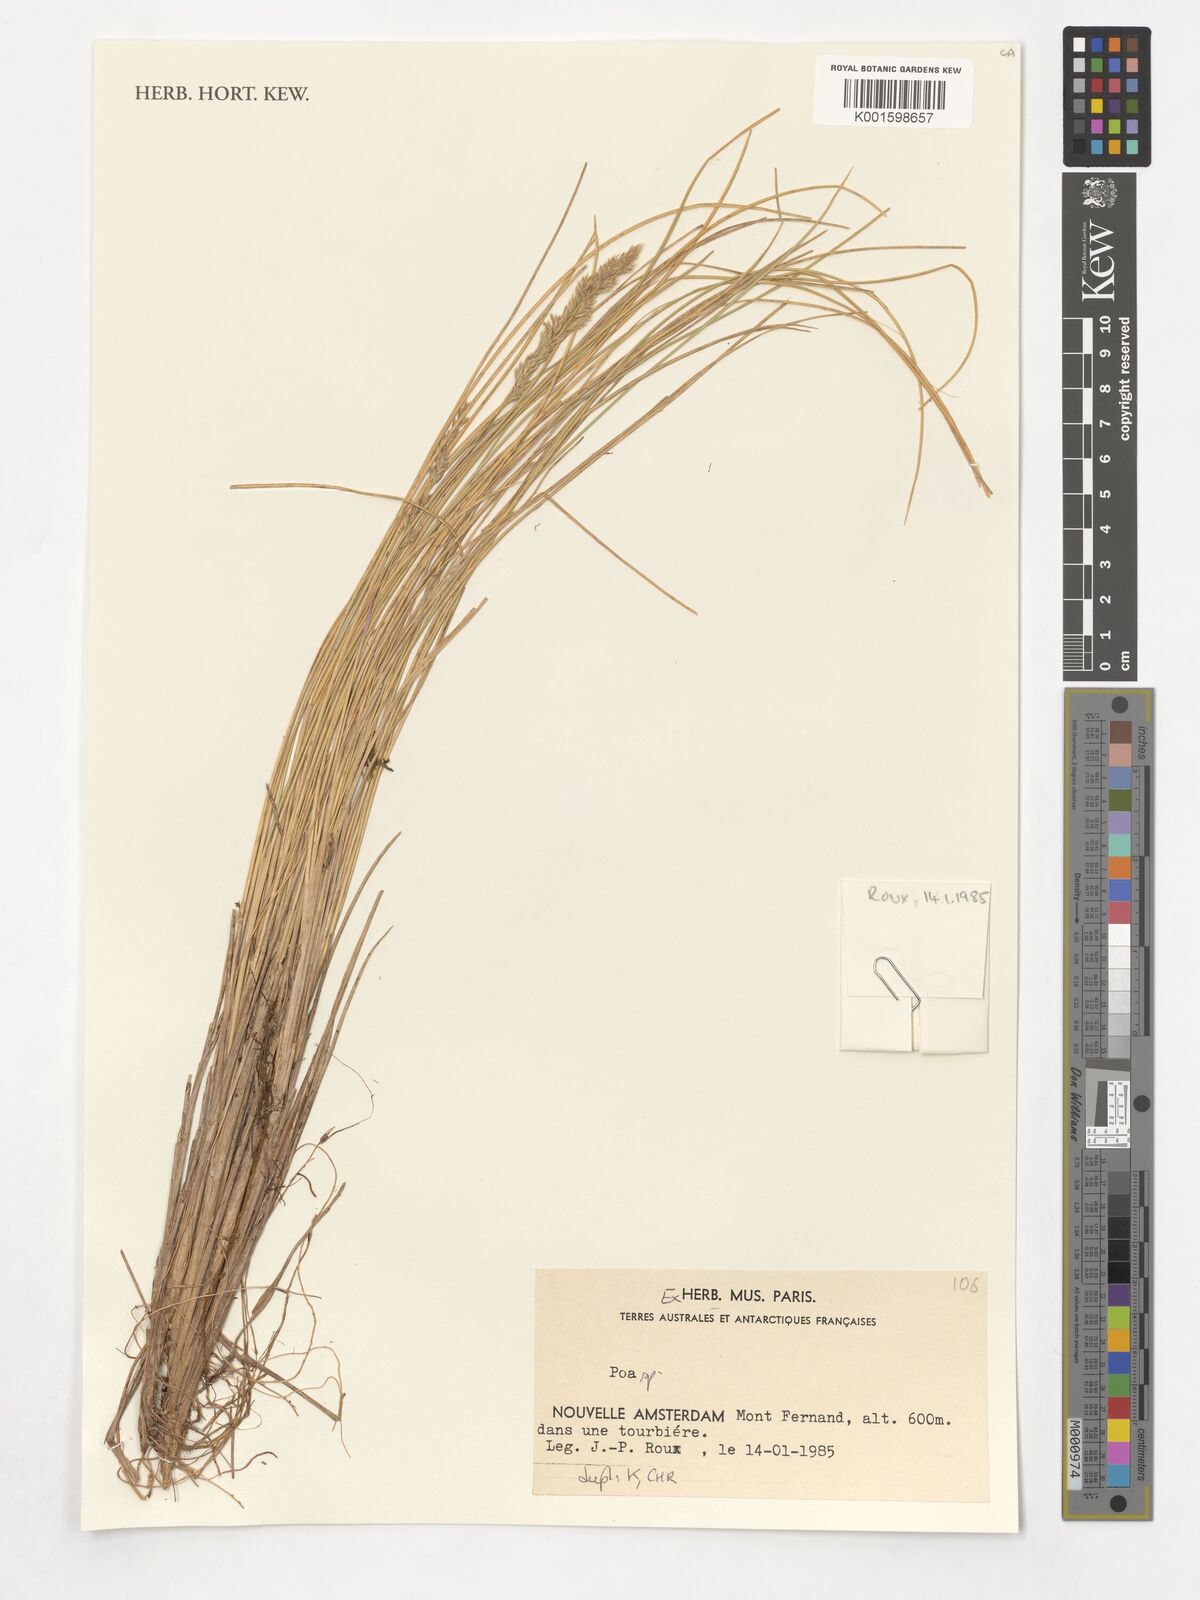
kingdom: Plantae
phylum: Tracheophyta
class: Liliopsida
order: Poales
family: Poaceae
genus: Poa
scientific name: Poa
